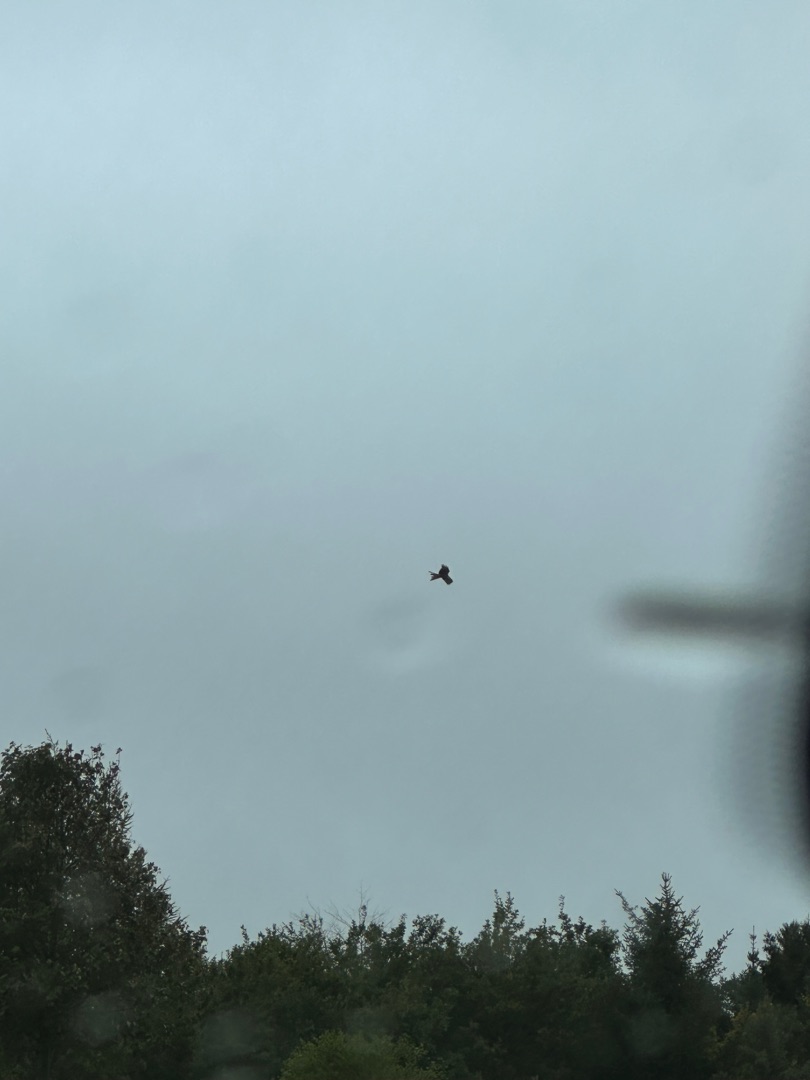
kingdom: Animalia
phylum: Chordata
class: Aves
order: Accipitriformes
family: Accipitridae
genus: Milvus
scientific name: Milvus milvus
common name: Rød glente
